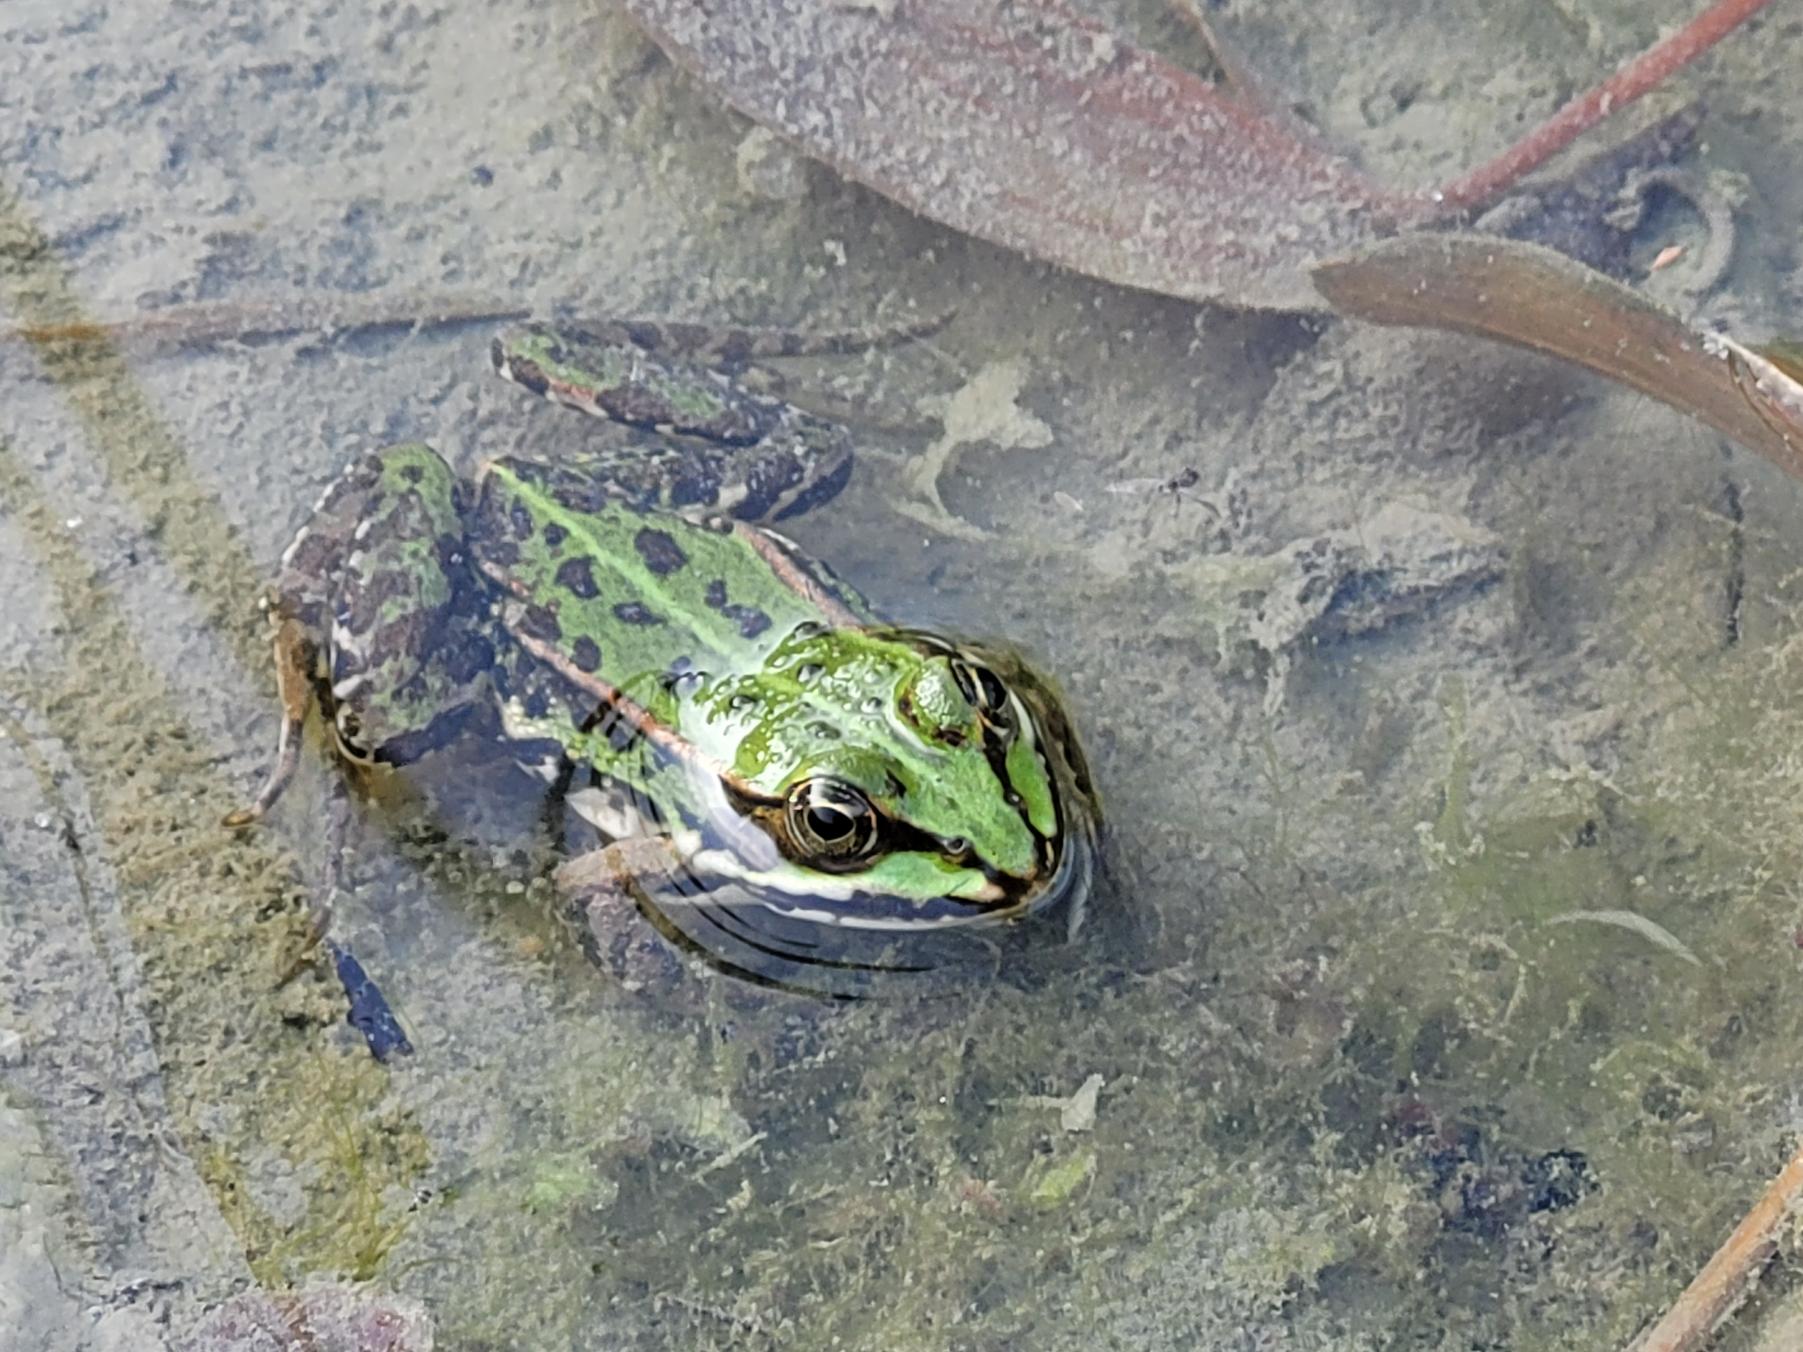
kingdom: Animalia
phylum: Chordata
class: Amphibia
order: Anura
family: Ranidae
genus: Pelophylax
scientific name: Pelophylax lessonae
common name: Grøn frø
